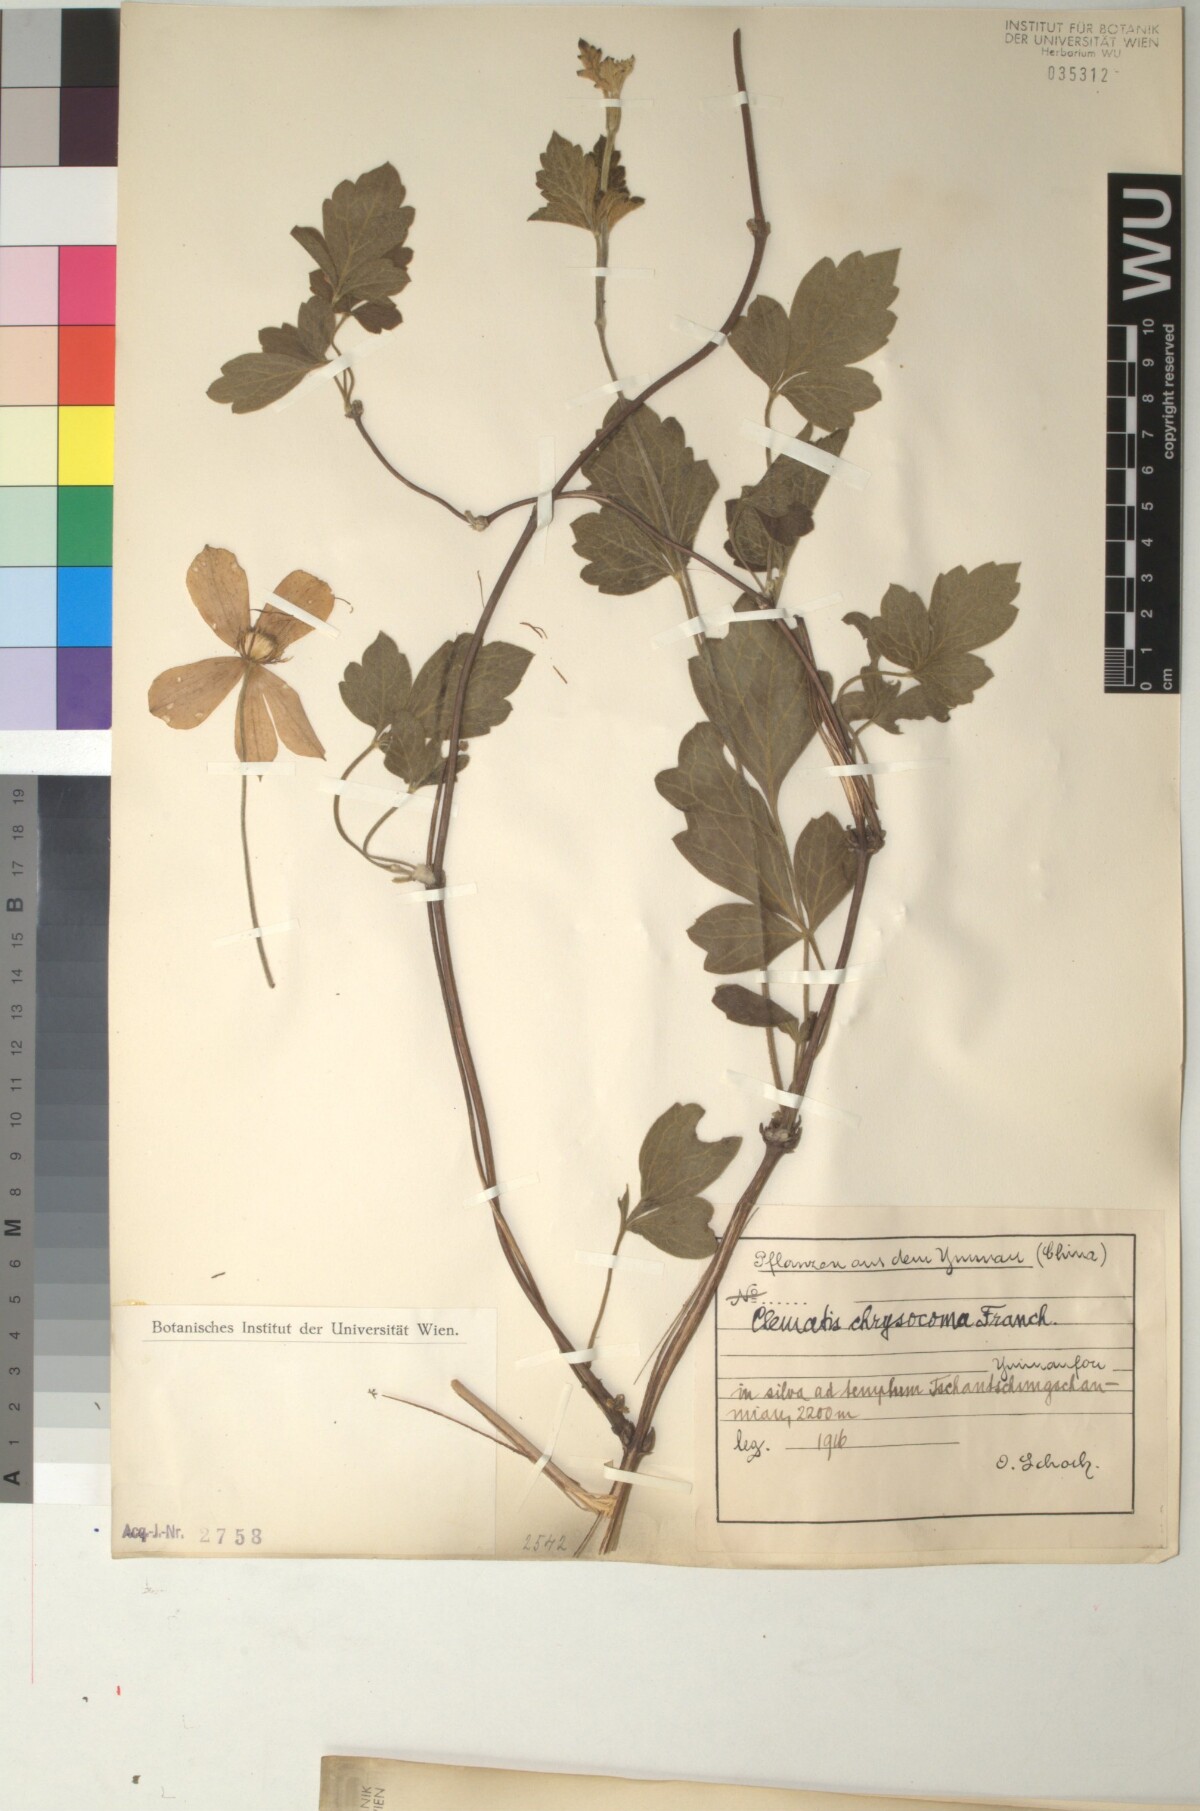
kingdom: Plantae
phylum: Tracheophyta
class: Magnoliopsida
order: Ranunculales
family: Ranunculaceae
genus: Clematis
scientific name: Clematis chrysocoma
